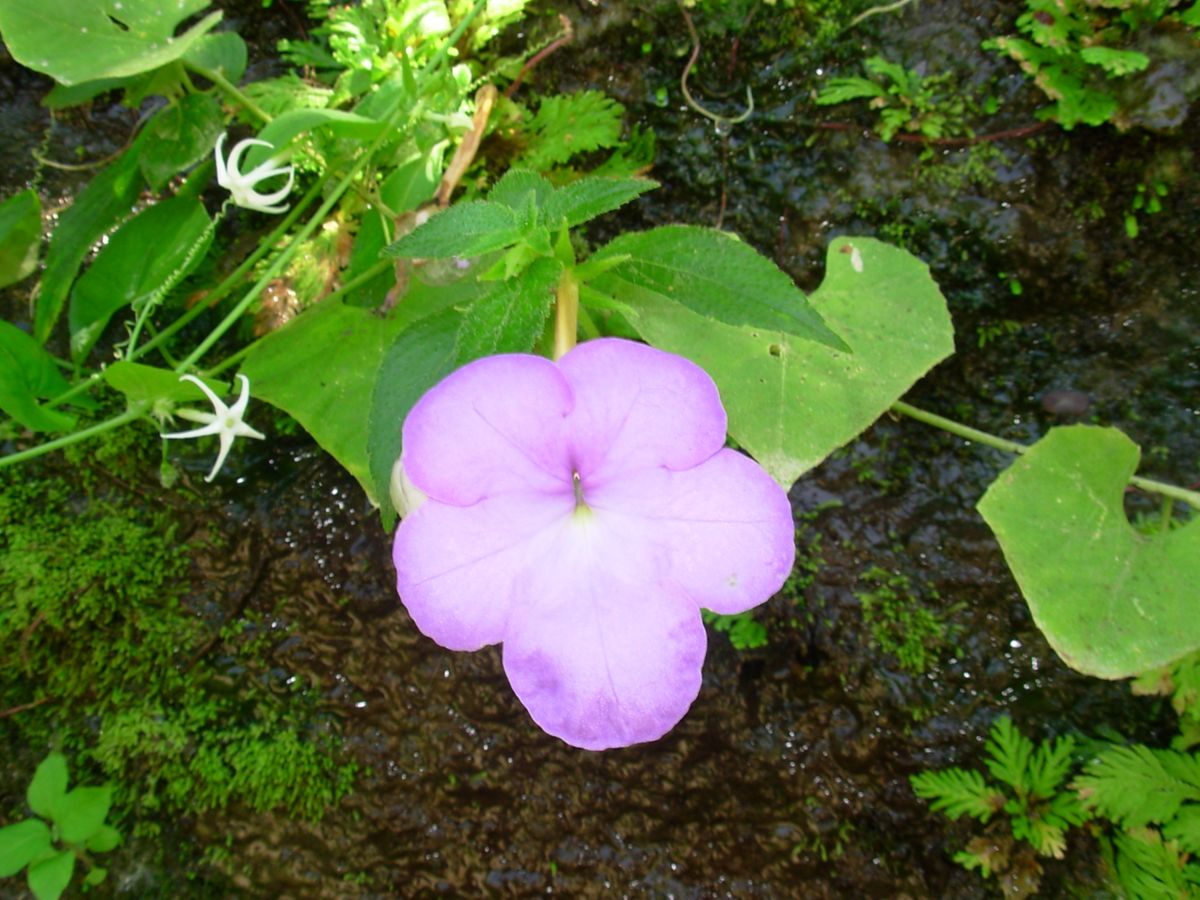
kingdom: Plantae
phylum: Tracheophyta
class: Magnoliopsida
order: Lamiales
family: Gesneriaceae
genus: Achimenes
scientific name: Achimenes longiflora
